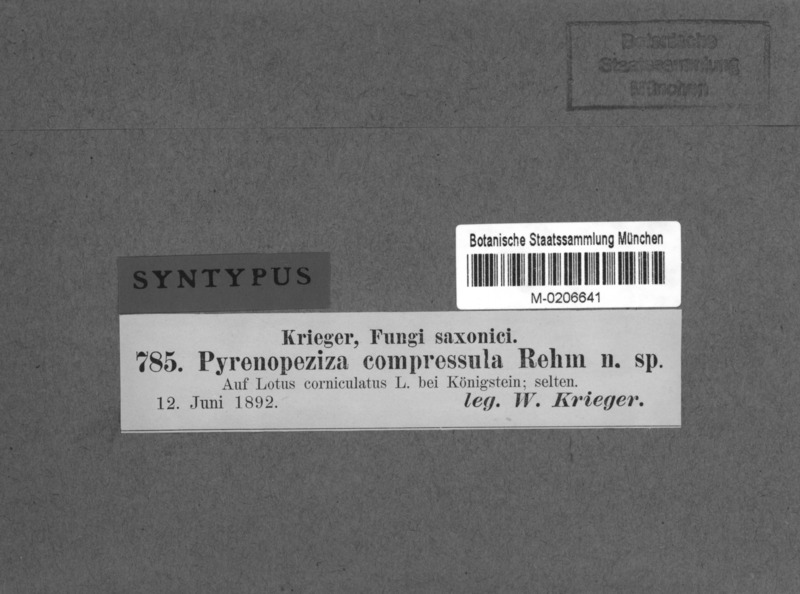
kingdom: Fungi
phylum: Ascomycota
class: Leotiomycetes
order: Helotiales
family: Ploettnerulaceae
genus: Pyrenopeziza
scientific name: Pyrenopeziza compressula
